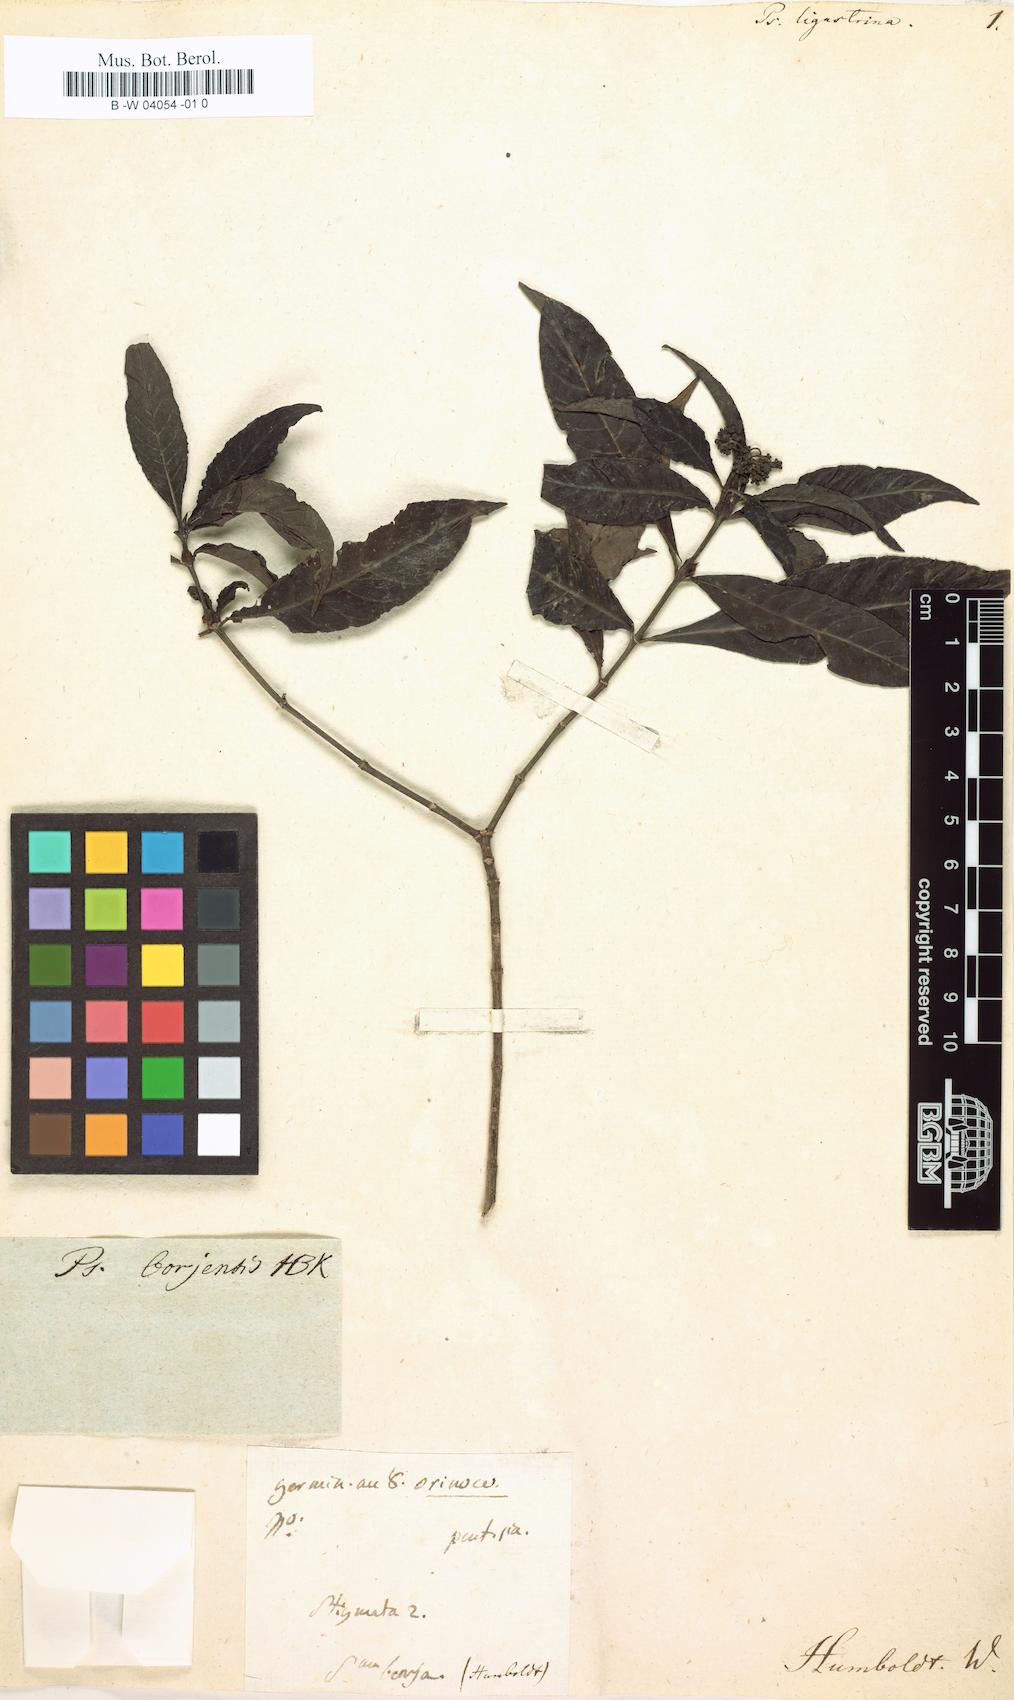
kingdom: Plantae
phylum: Tracheophyta
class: Magnoliopsida
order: Gentianales
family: Rubiaceae
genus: Psychotria
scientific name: Psychotria borjensis
